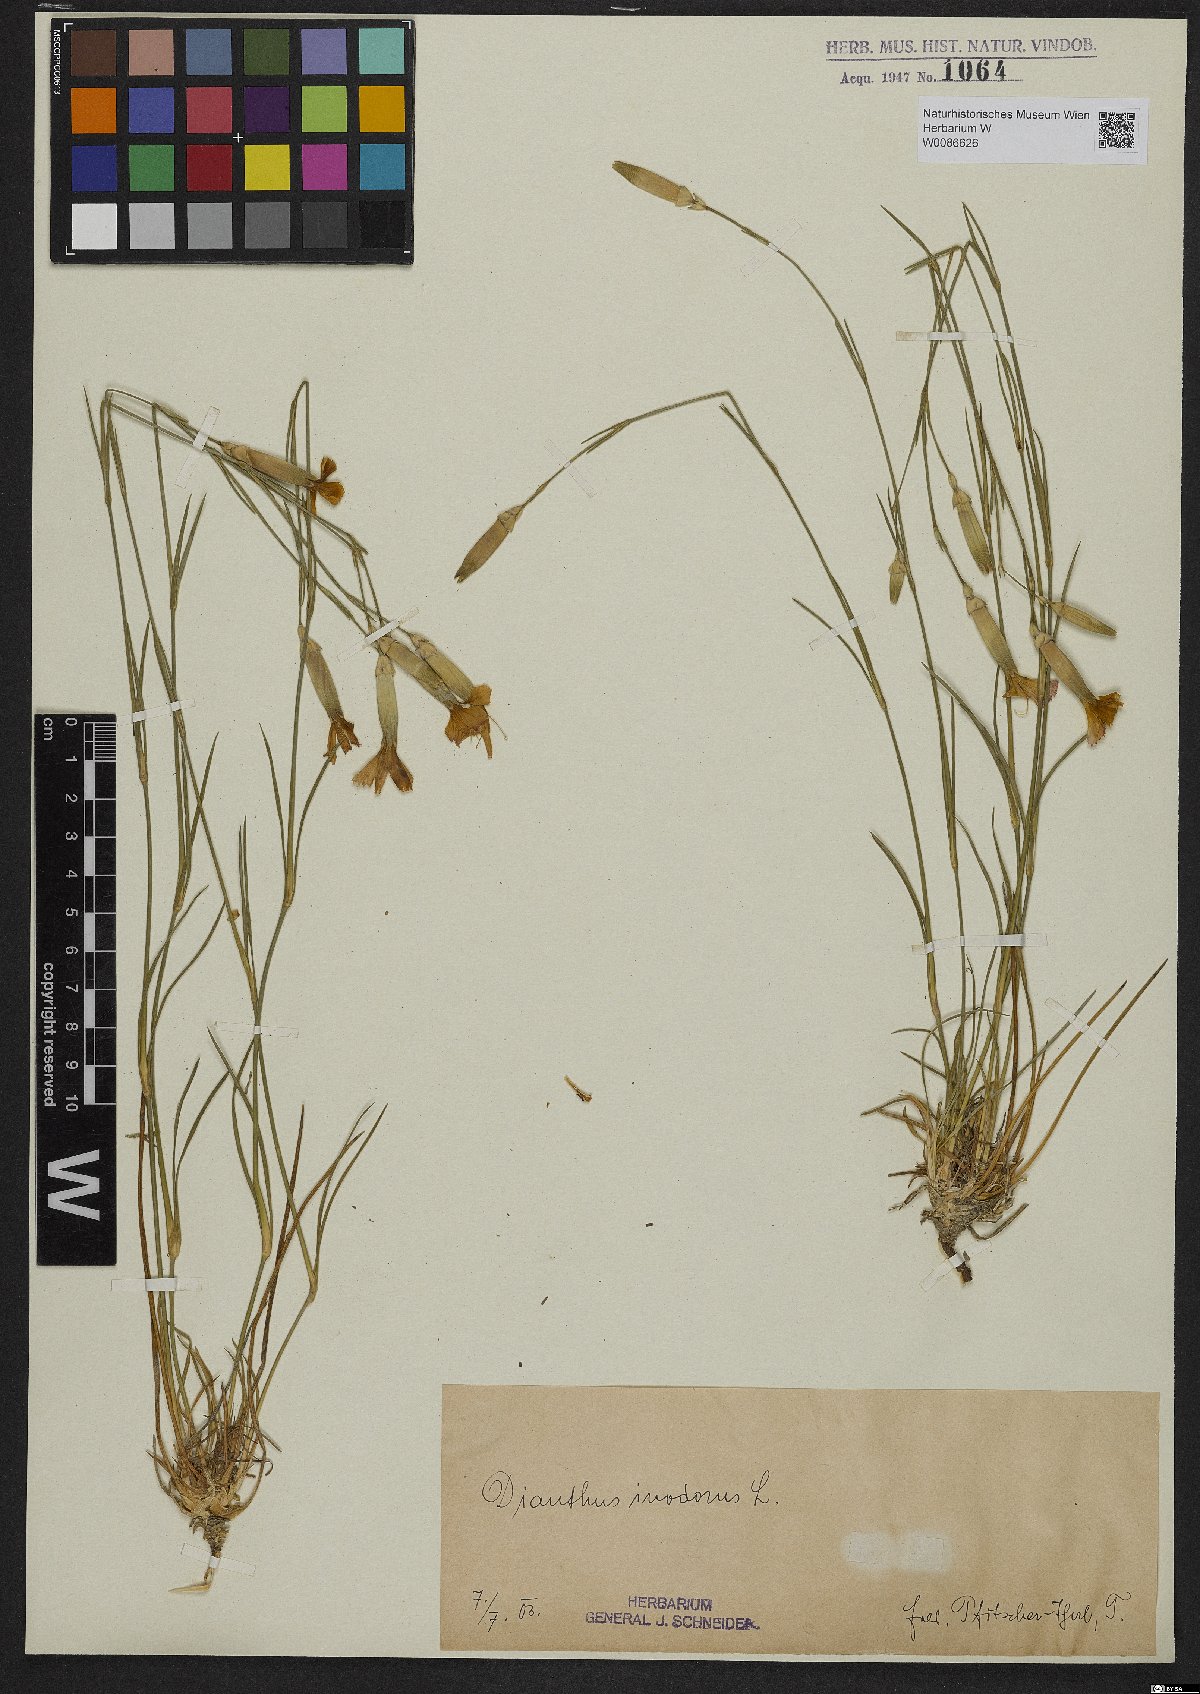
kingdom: Plantae
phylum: Tracheophyta
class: Magnoliopsida
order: Caryophyllales
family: Caryophyllaceae
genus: Dianthus
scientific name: Dianthus sylvestris
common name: Wood pink
